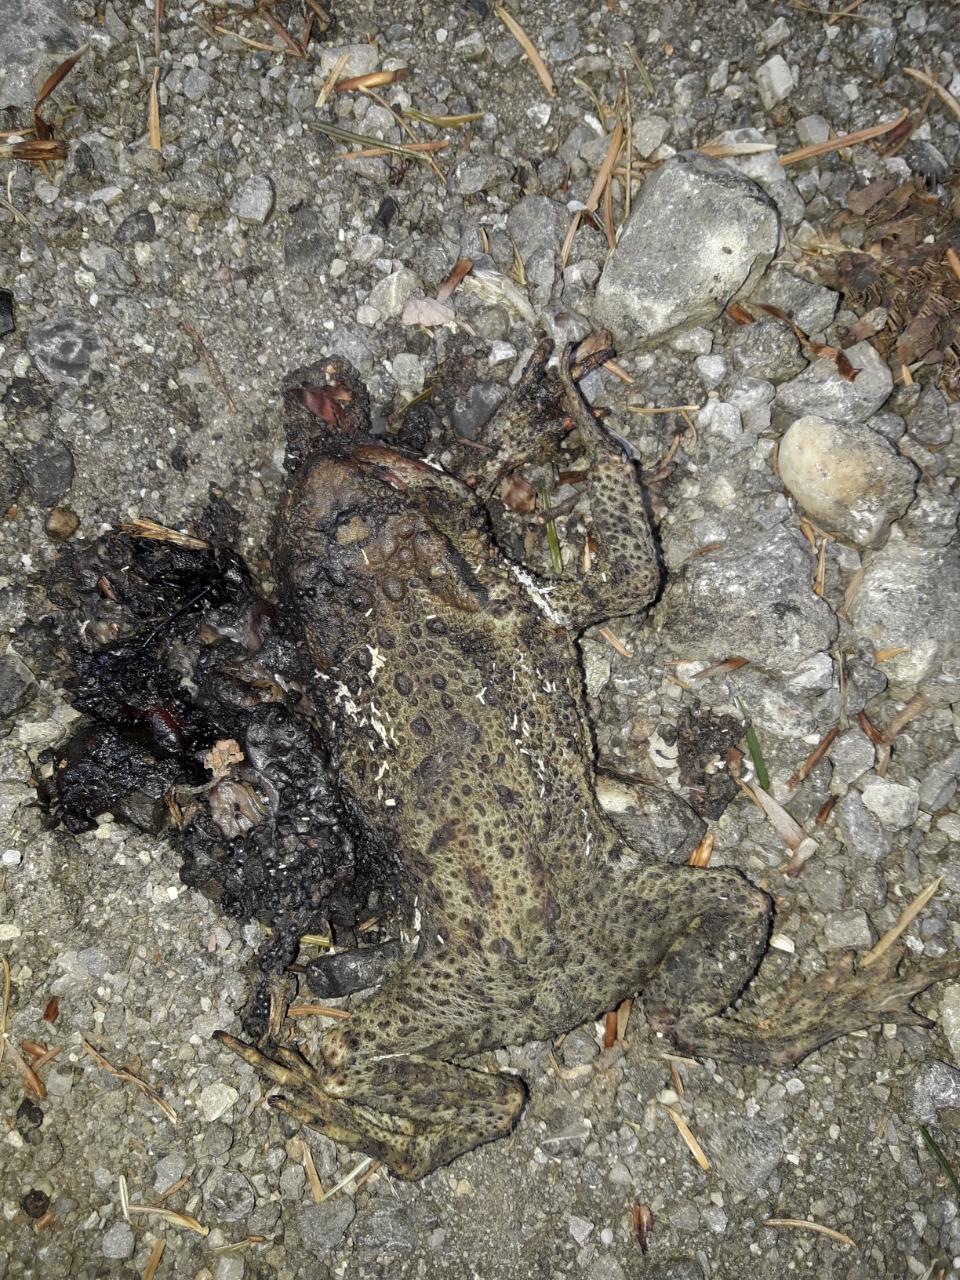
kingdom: Animalia
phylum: Chordata
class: Amphibia
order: Anura
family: Bufonidae
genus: Bufo
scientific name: Bufo bufo
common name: Common toad
